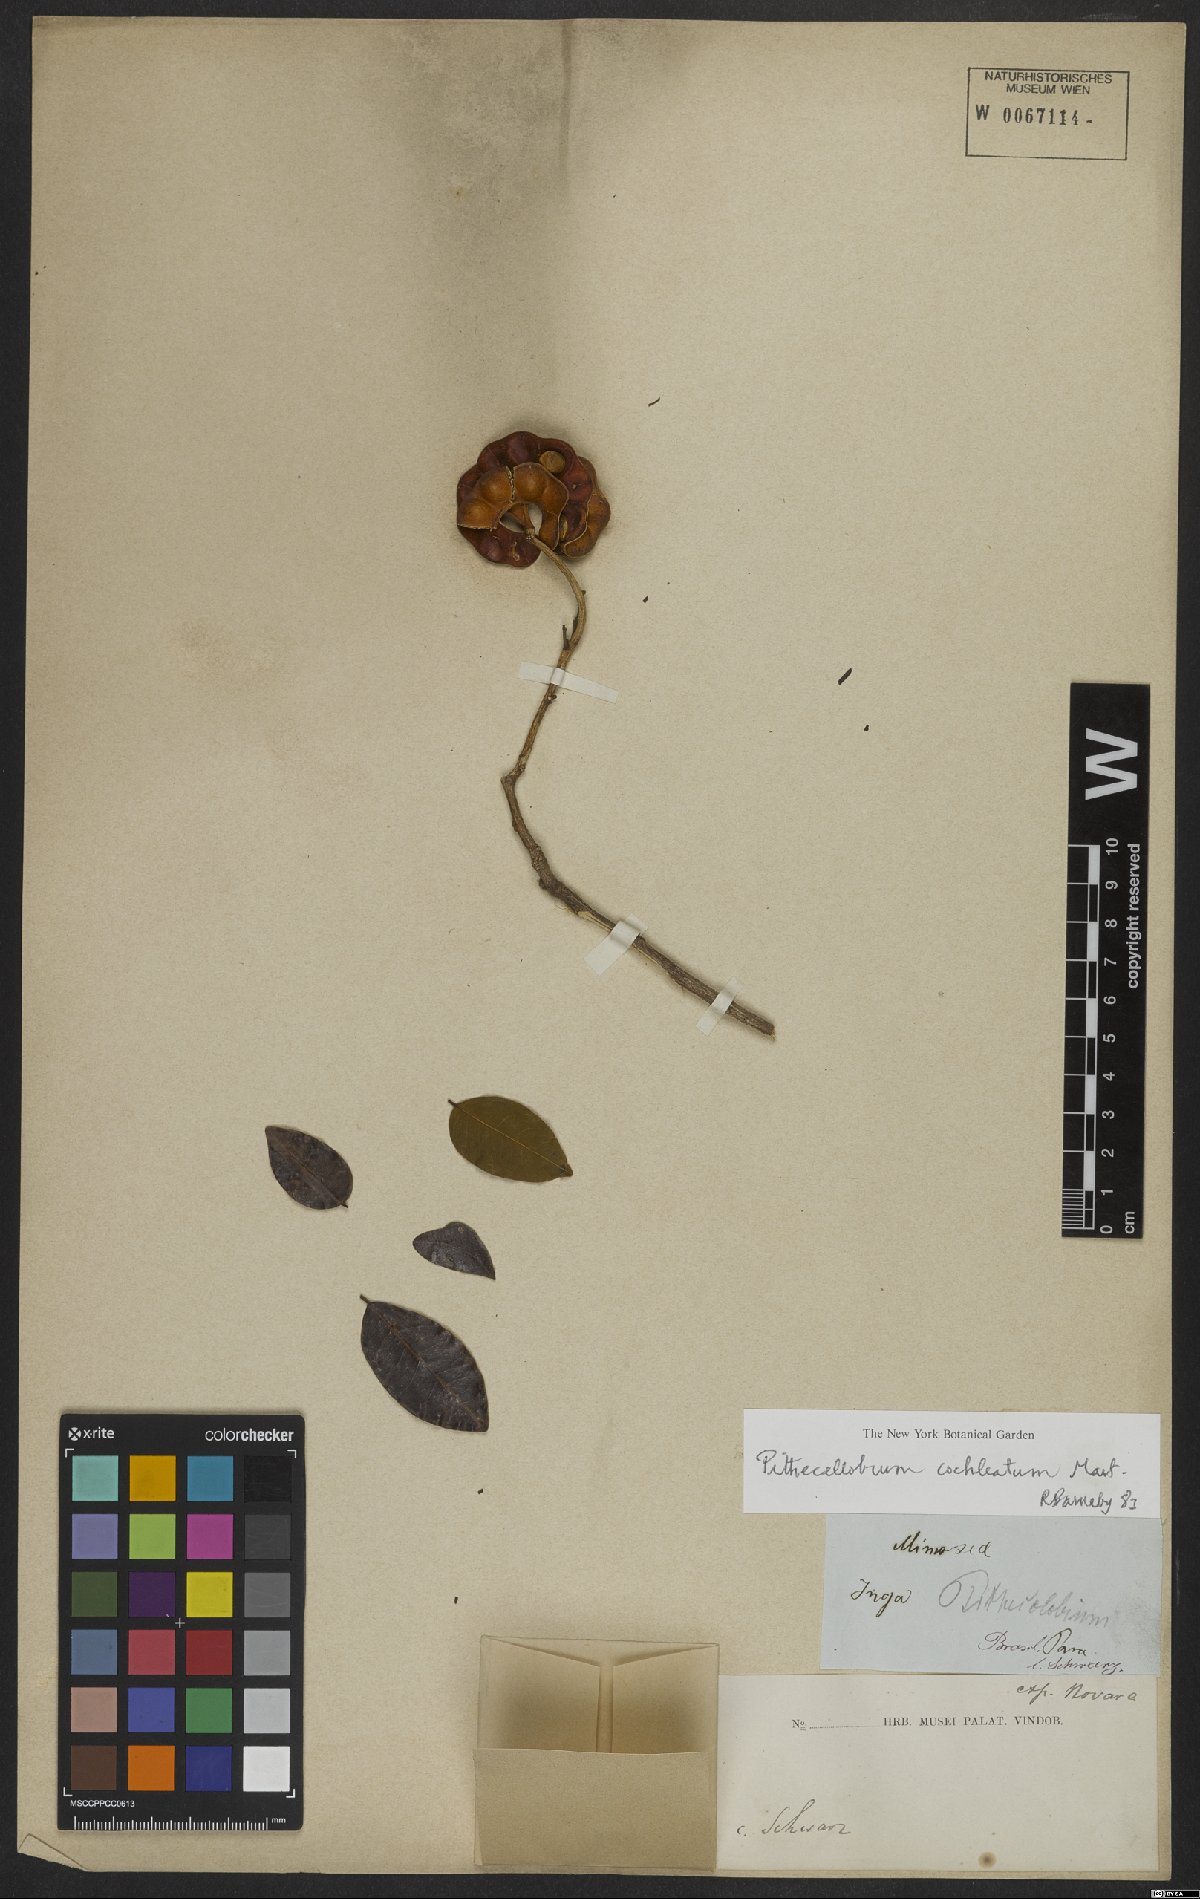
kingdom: Plantae
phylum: Tracheophyta
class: Magnoliopsida
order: Fabales
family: Fabaceae
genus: Jupunba
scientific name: Jupunba cochleata
